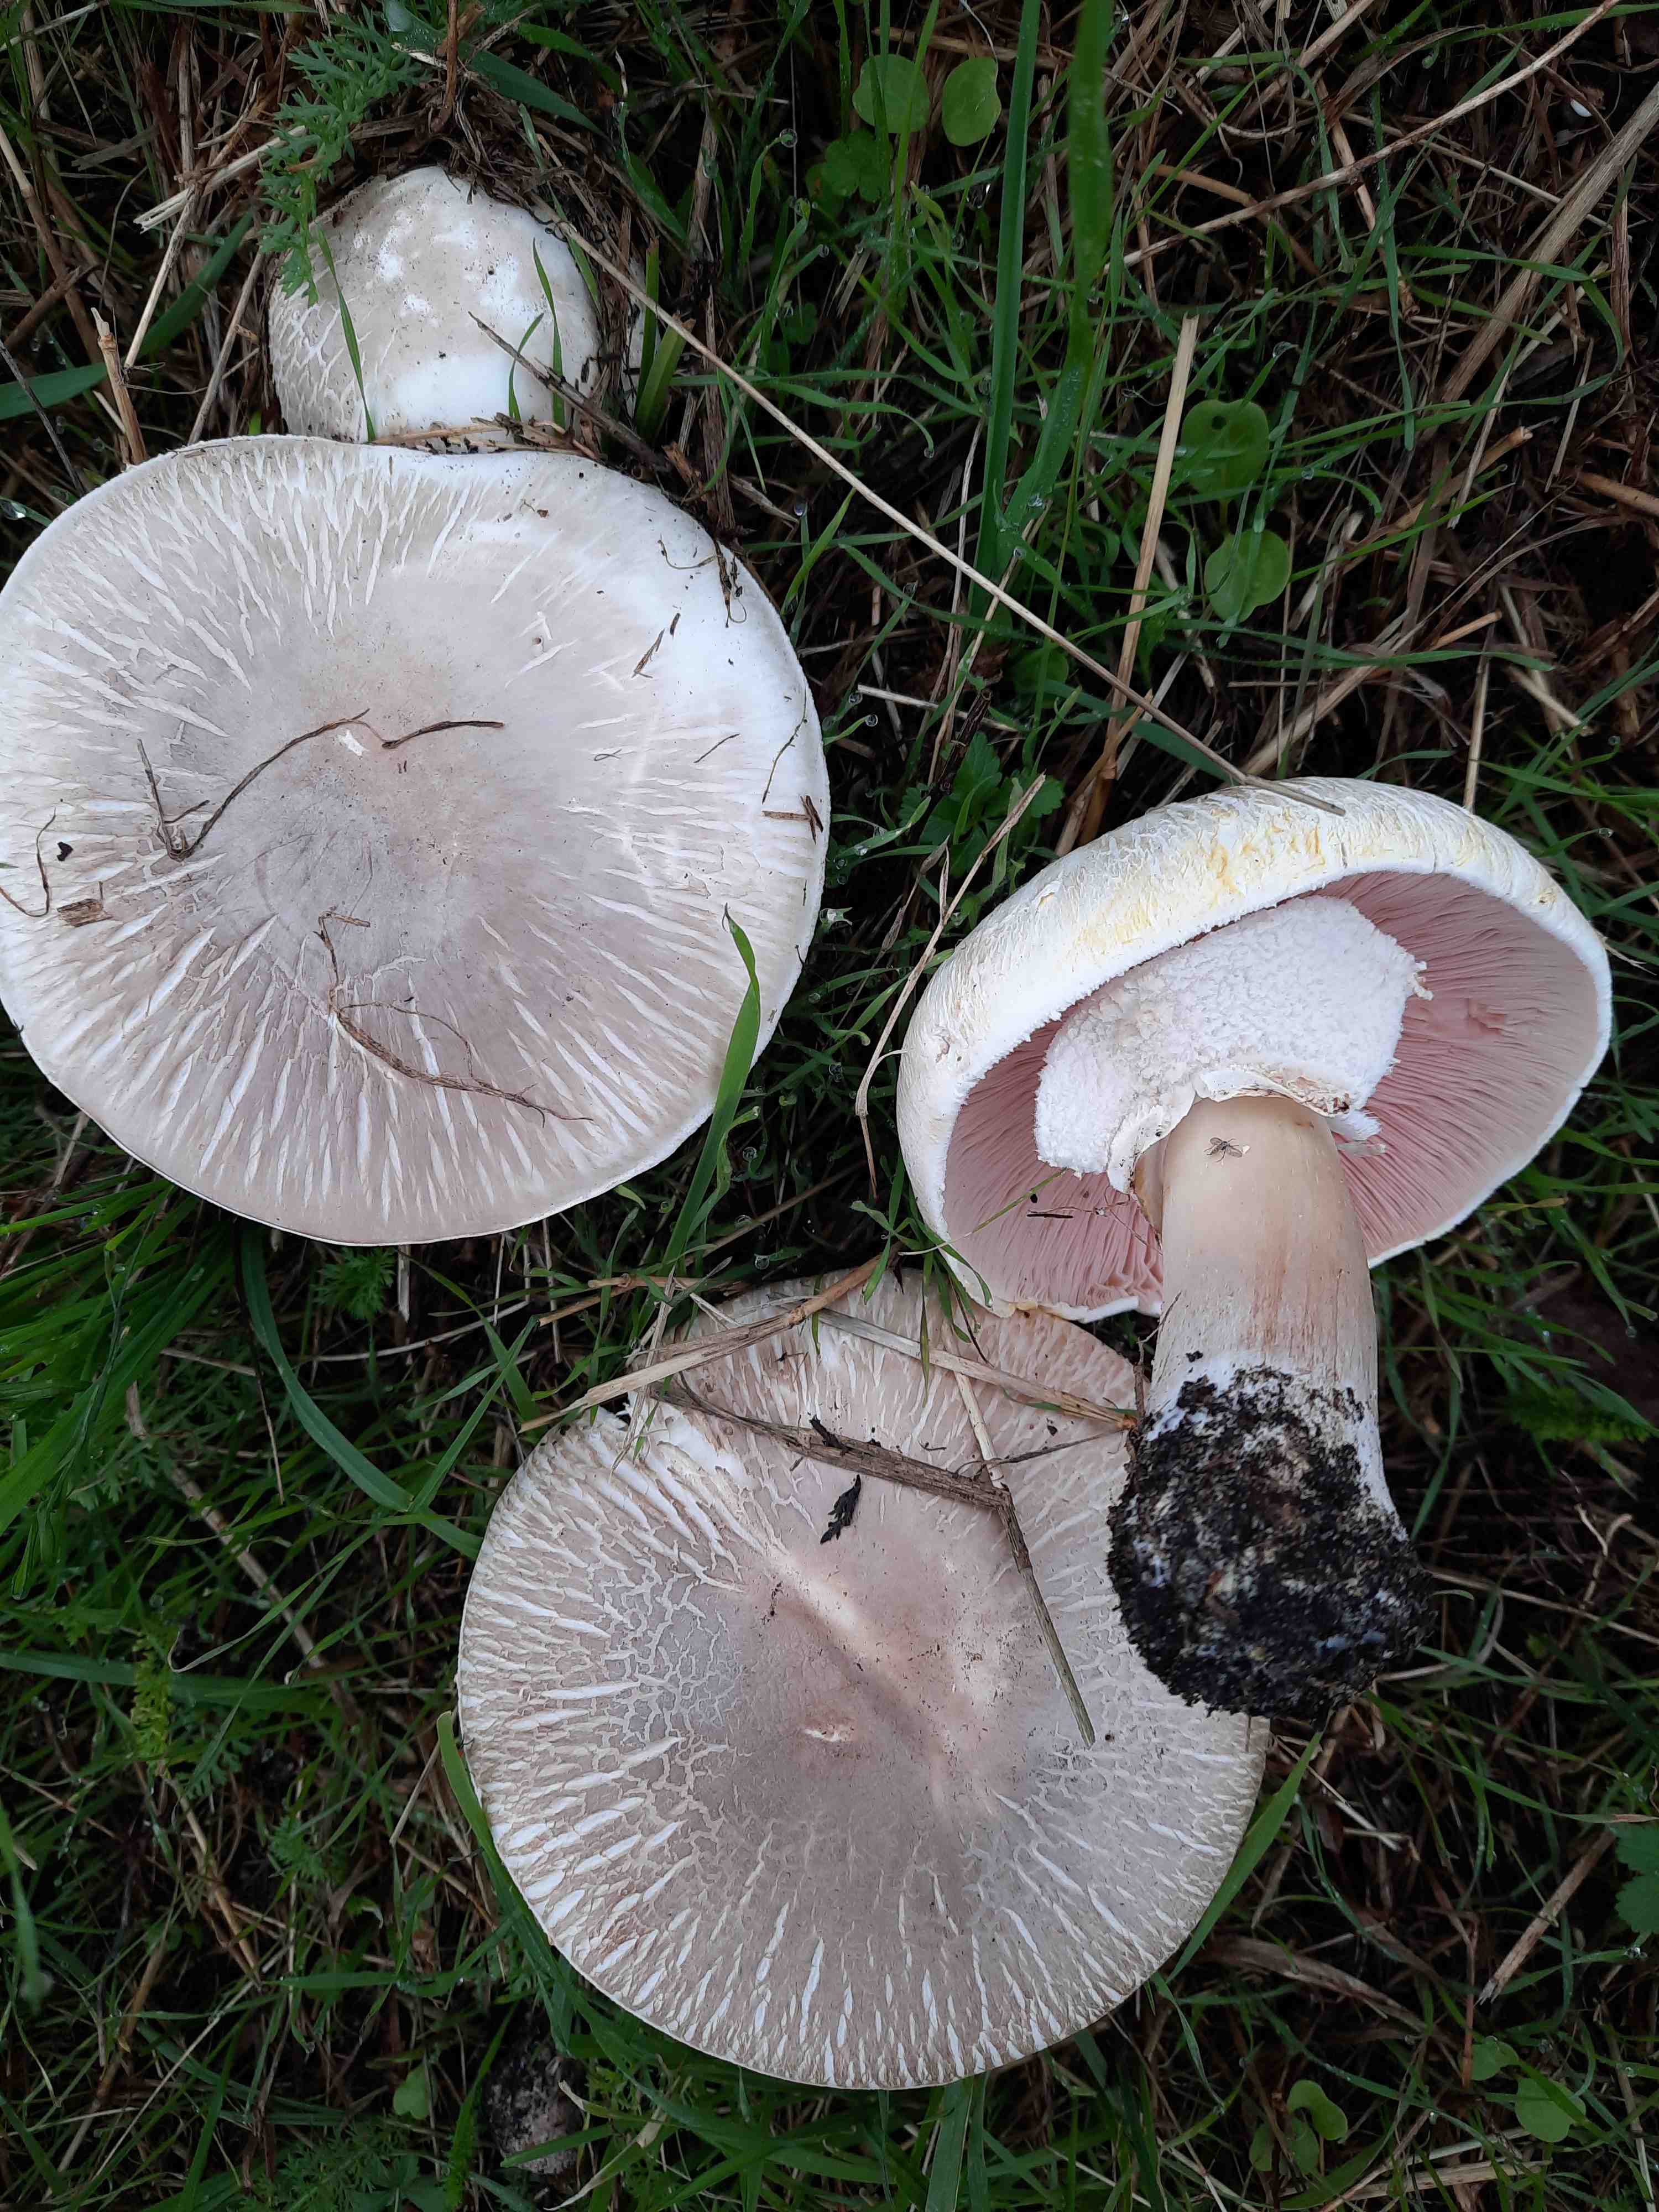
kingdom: Fungi
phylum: Basidiomycota
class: Agaricomycetes
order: Agaricales
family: Agaricaceae
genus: Agaricus
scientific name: Agaricus xanthodermus
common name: karbol-champignon
